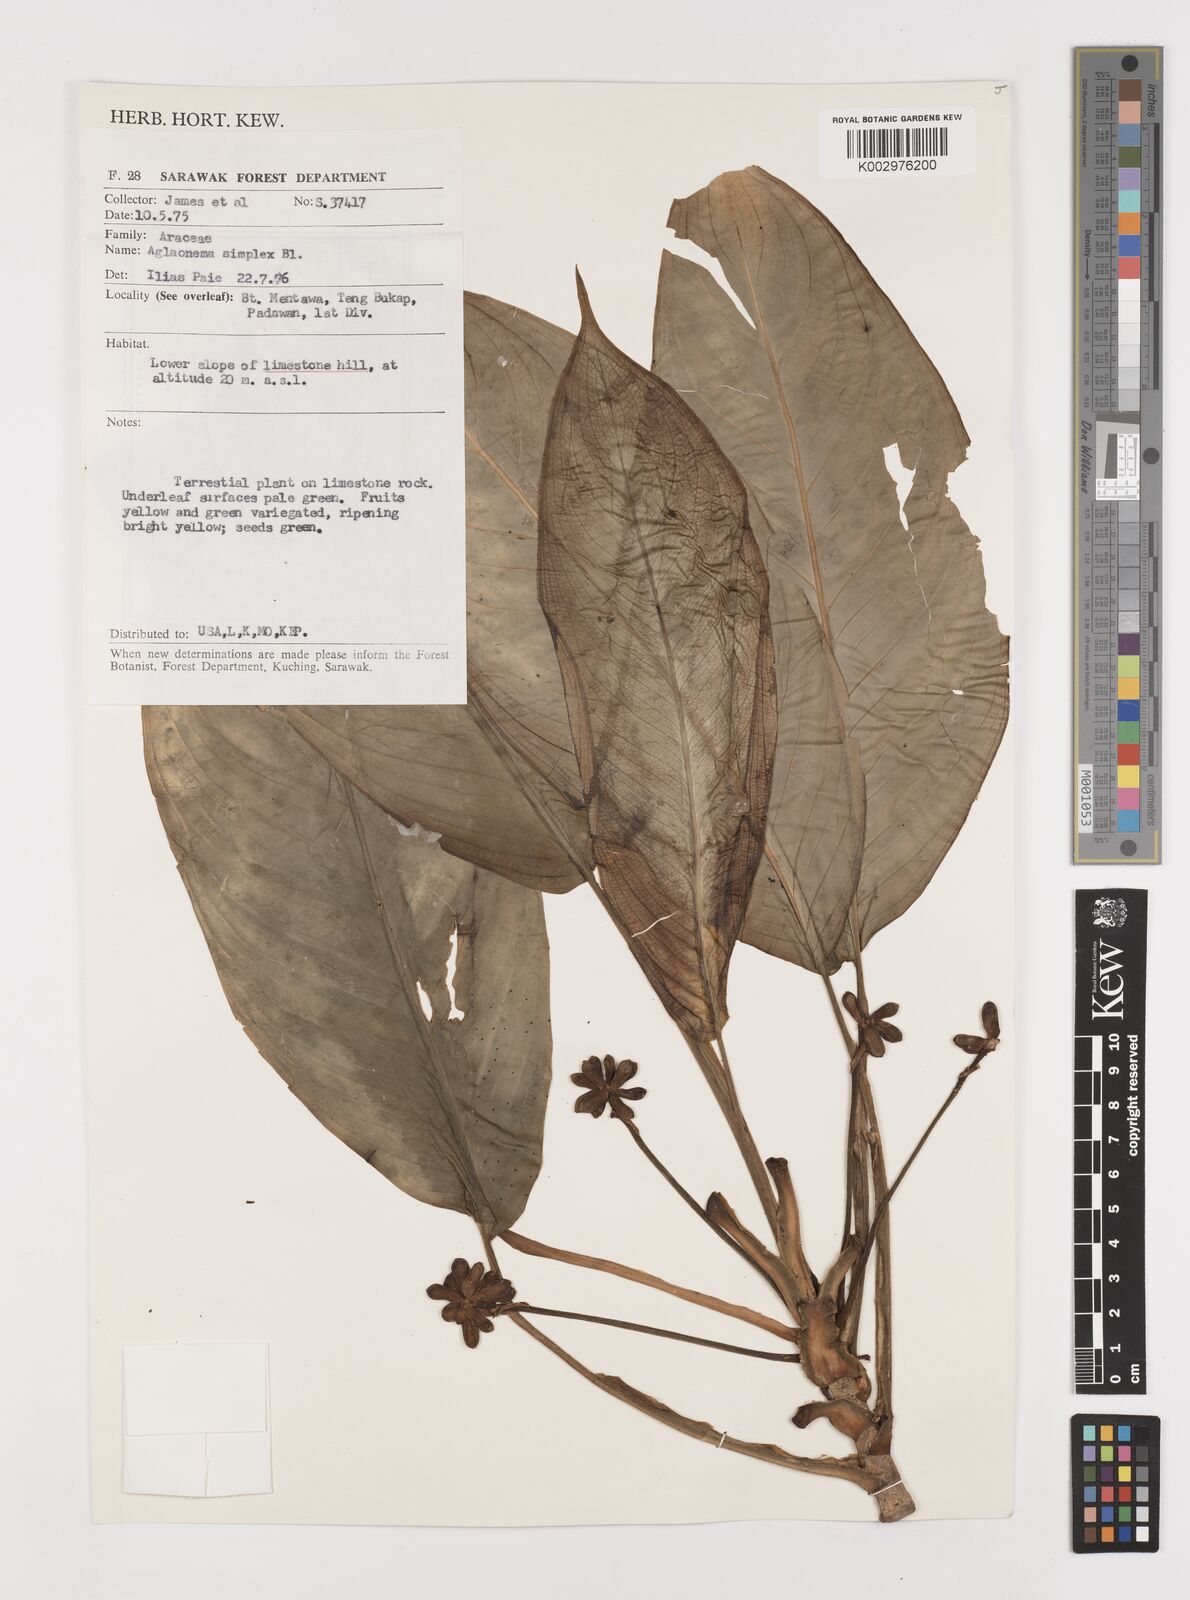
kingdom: Plantae
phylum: Tracheophyta
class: Liliopsida
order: Alismatales
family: Araceae
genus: Aglaonema
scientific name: Aglaonema simplex
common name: Malayan-sword
